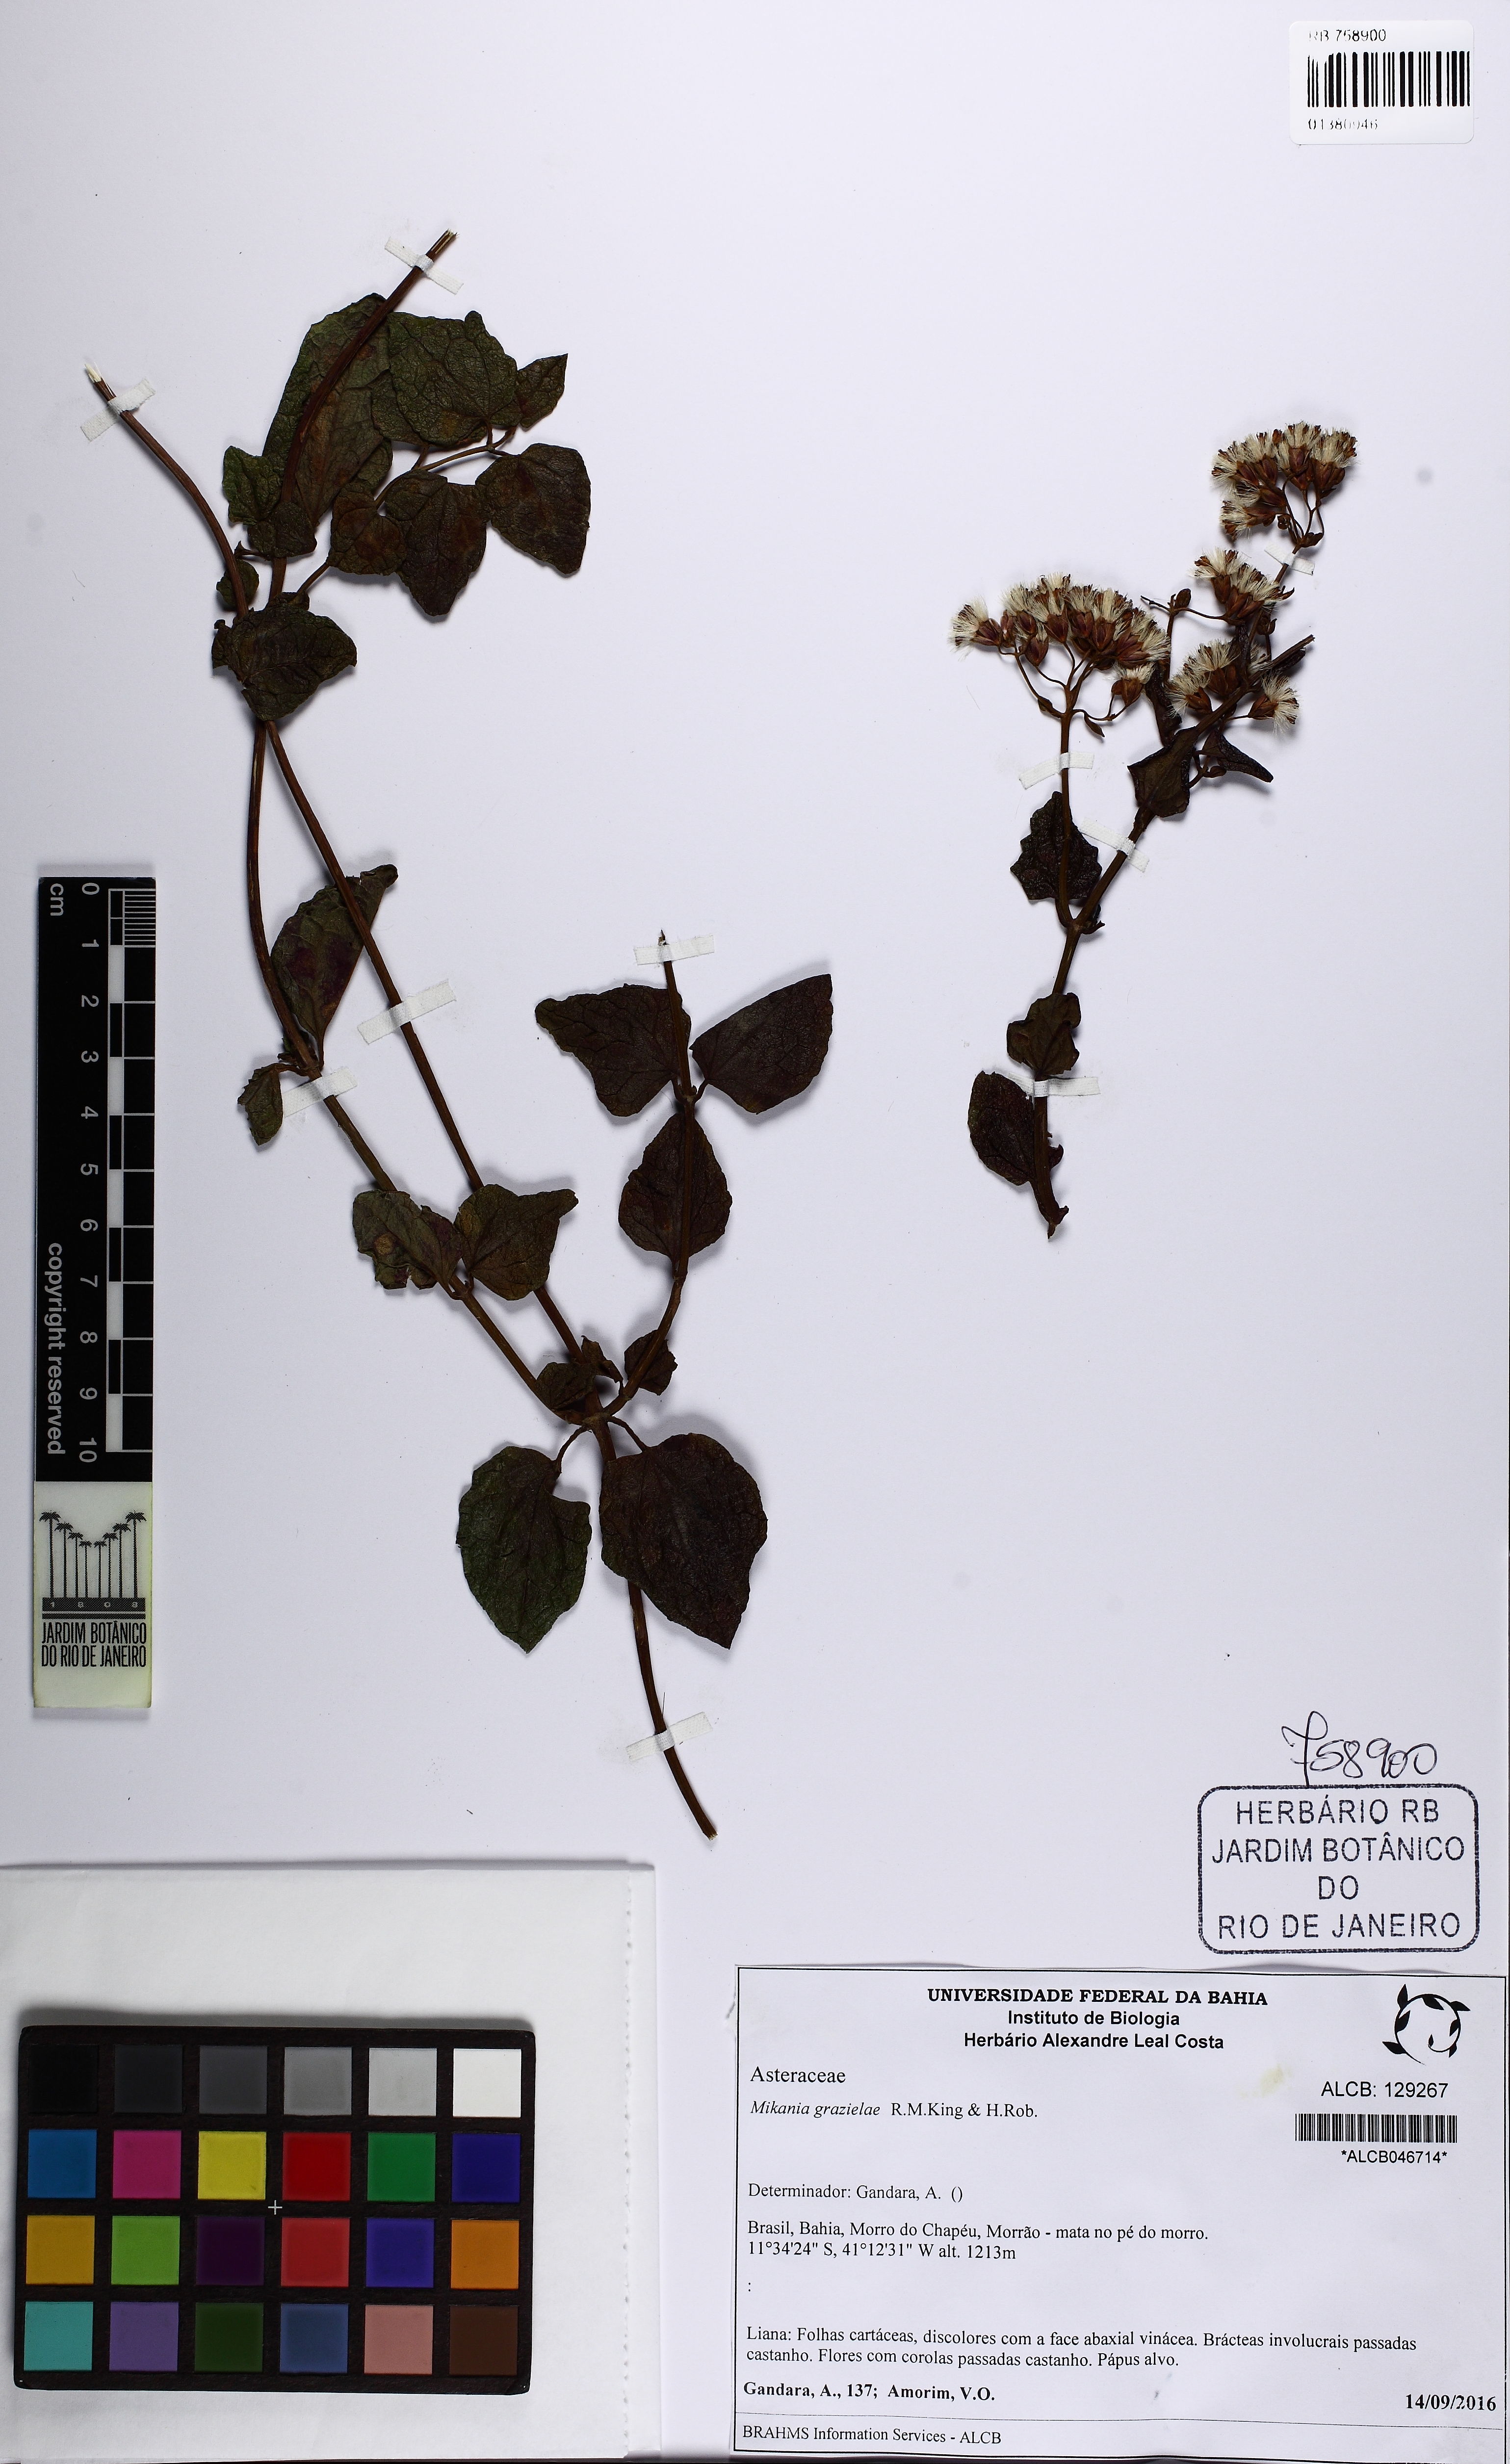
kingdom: Plantae
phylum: Tracheophyta
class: Magnoliopsida
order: Asterales
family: Asteraceae
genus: Mikania
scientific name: Mikania grazielae
